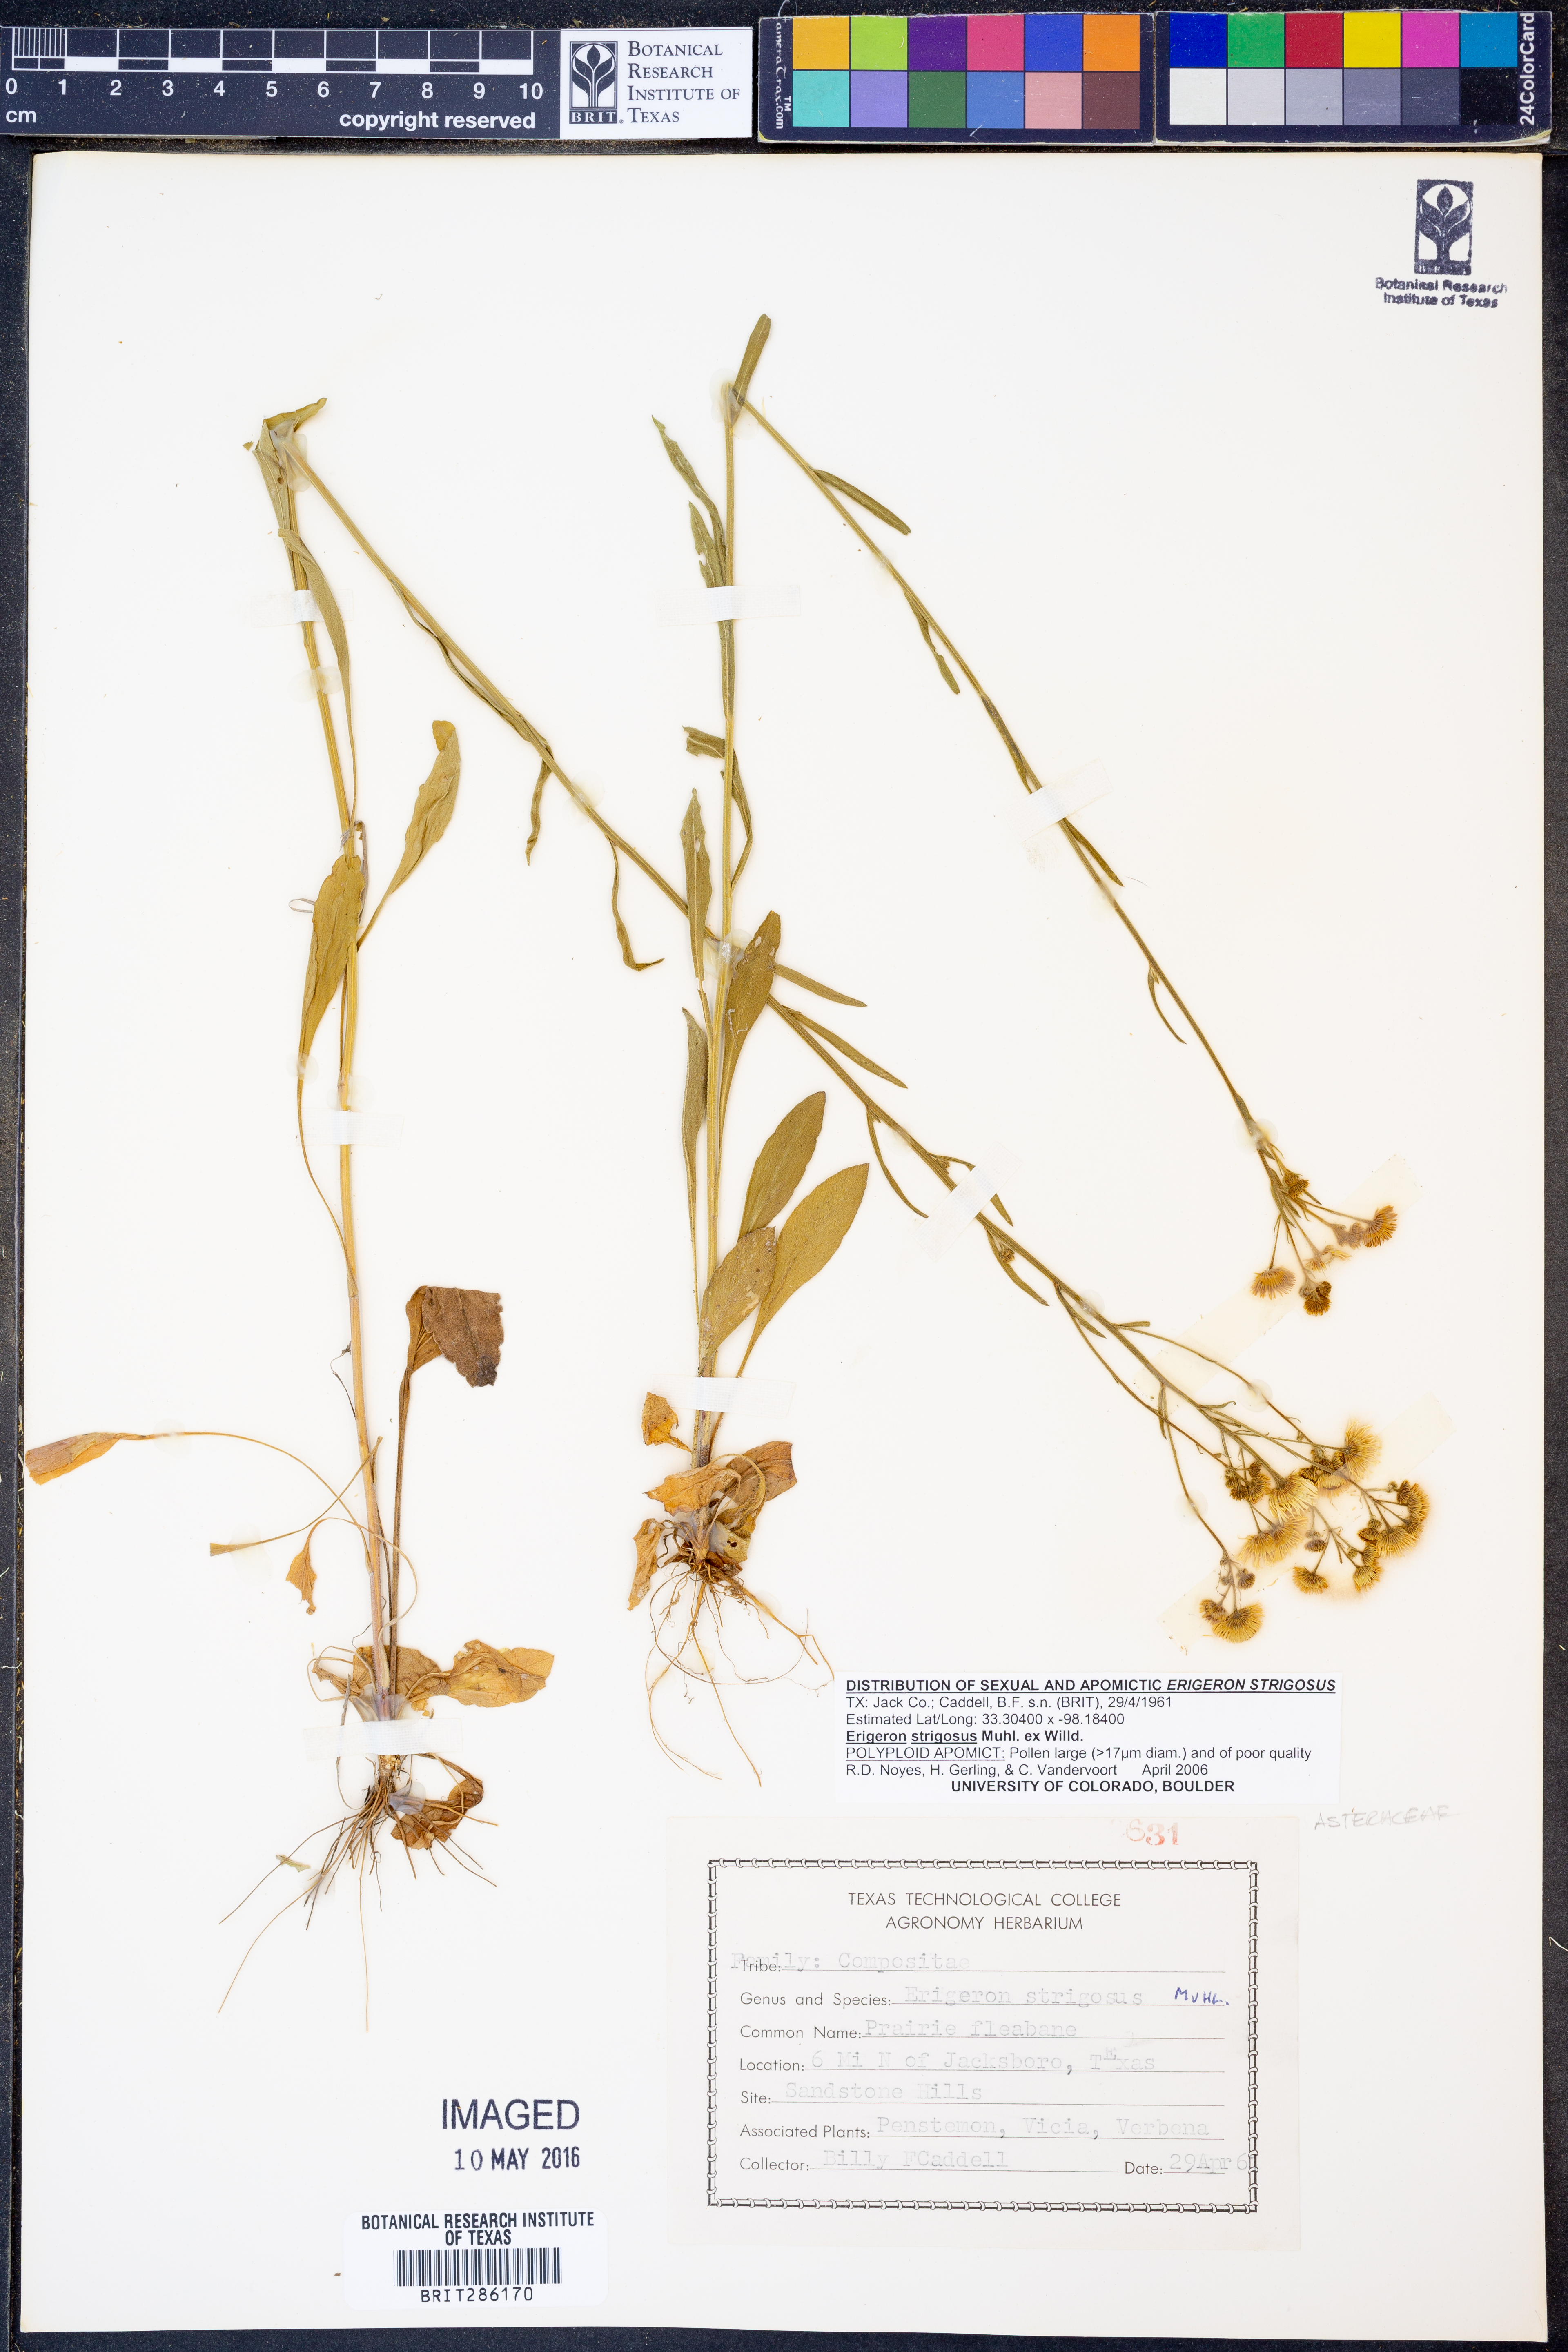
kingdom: Plantae
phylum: Tracheophyta
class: Magnoliopsida
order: Asterales
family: Asteraceae
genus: Erigeron
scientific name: Erigeron strigosus
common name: Common eastern fleabane
